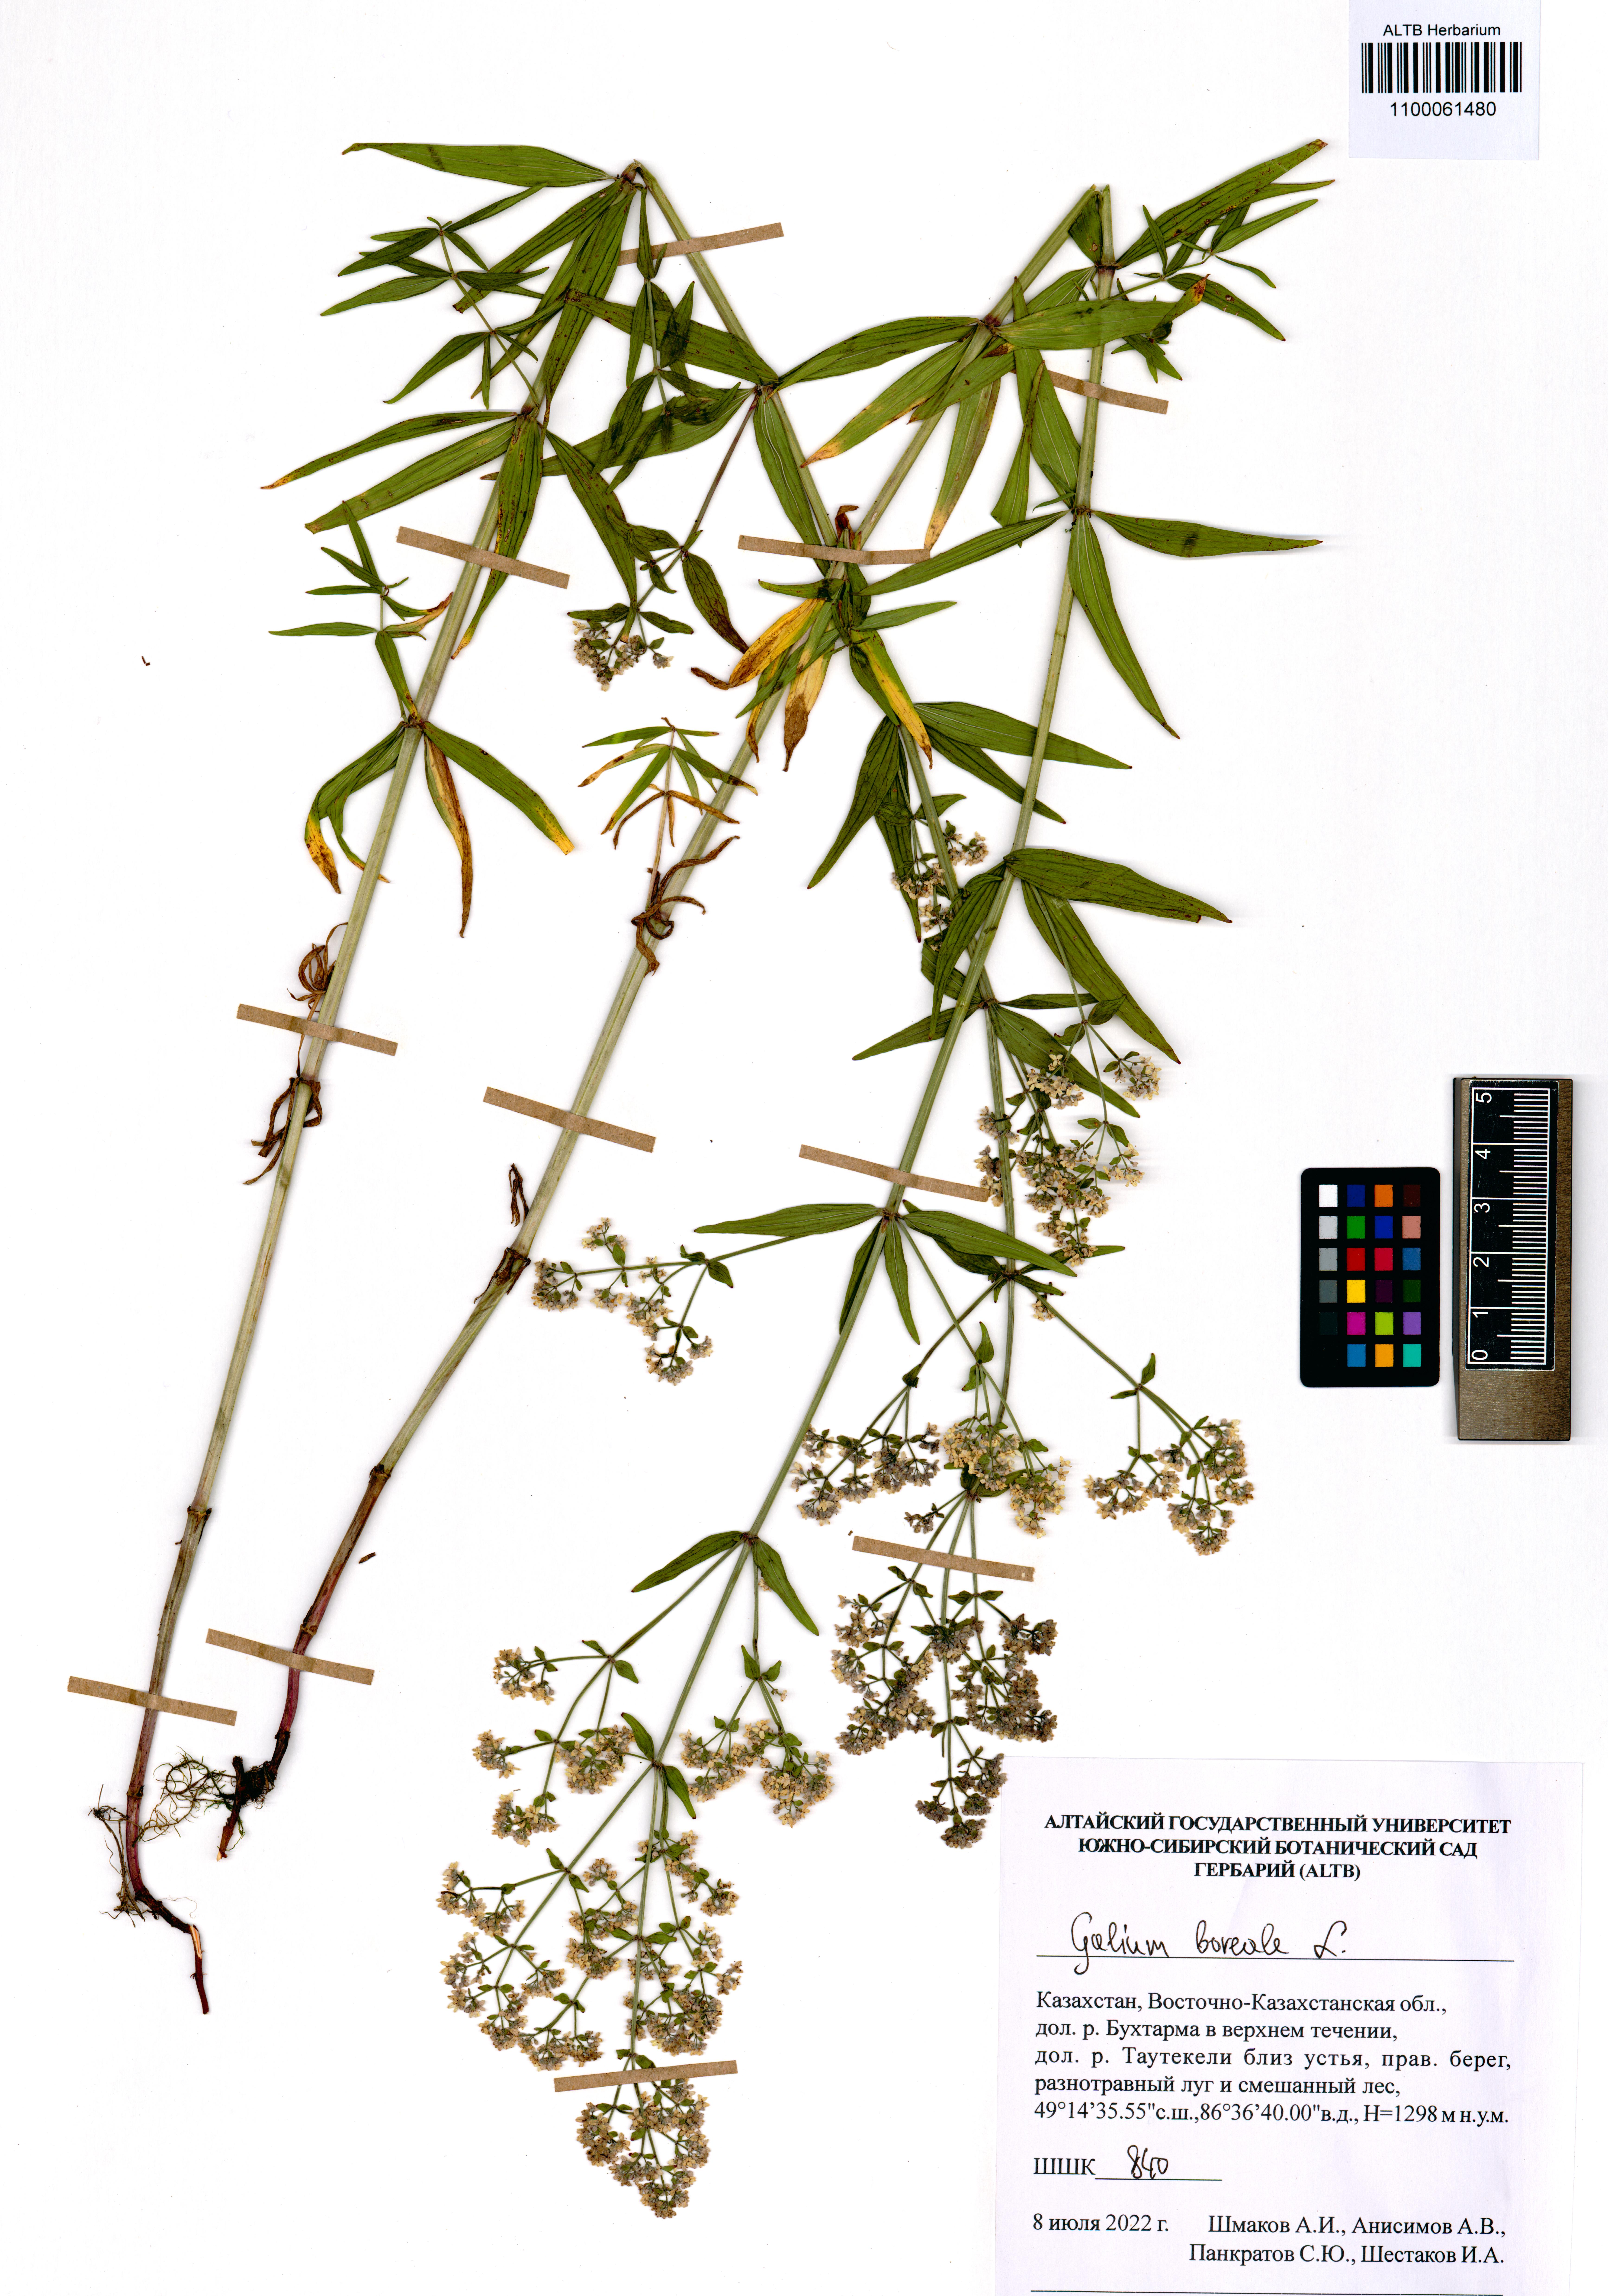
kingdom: Plantae
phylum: Tracheophyta
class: Magnoliopsida
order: Gentianales
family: Rubiaceae
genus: Galium
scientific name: Galium boreale
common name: Northern bedstraw
